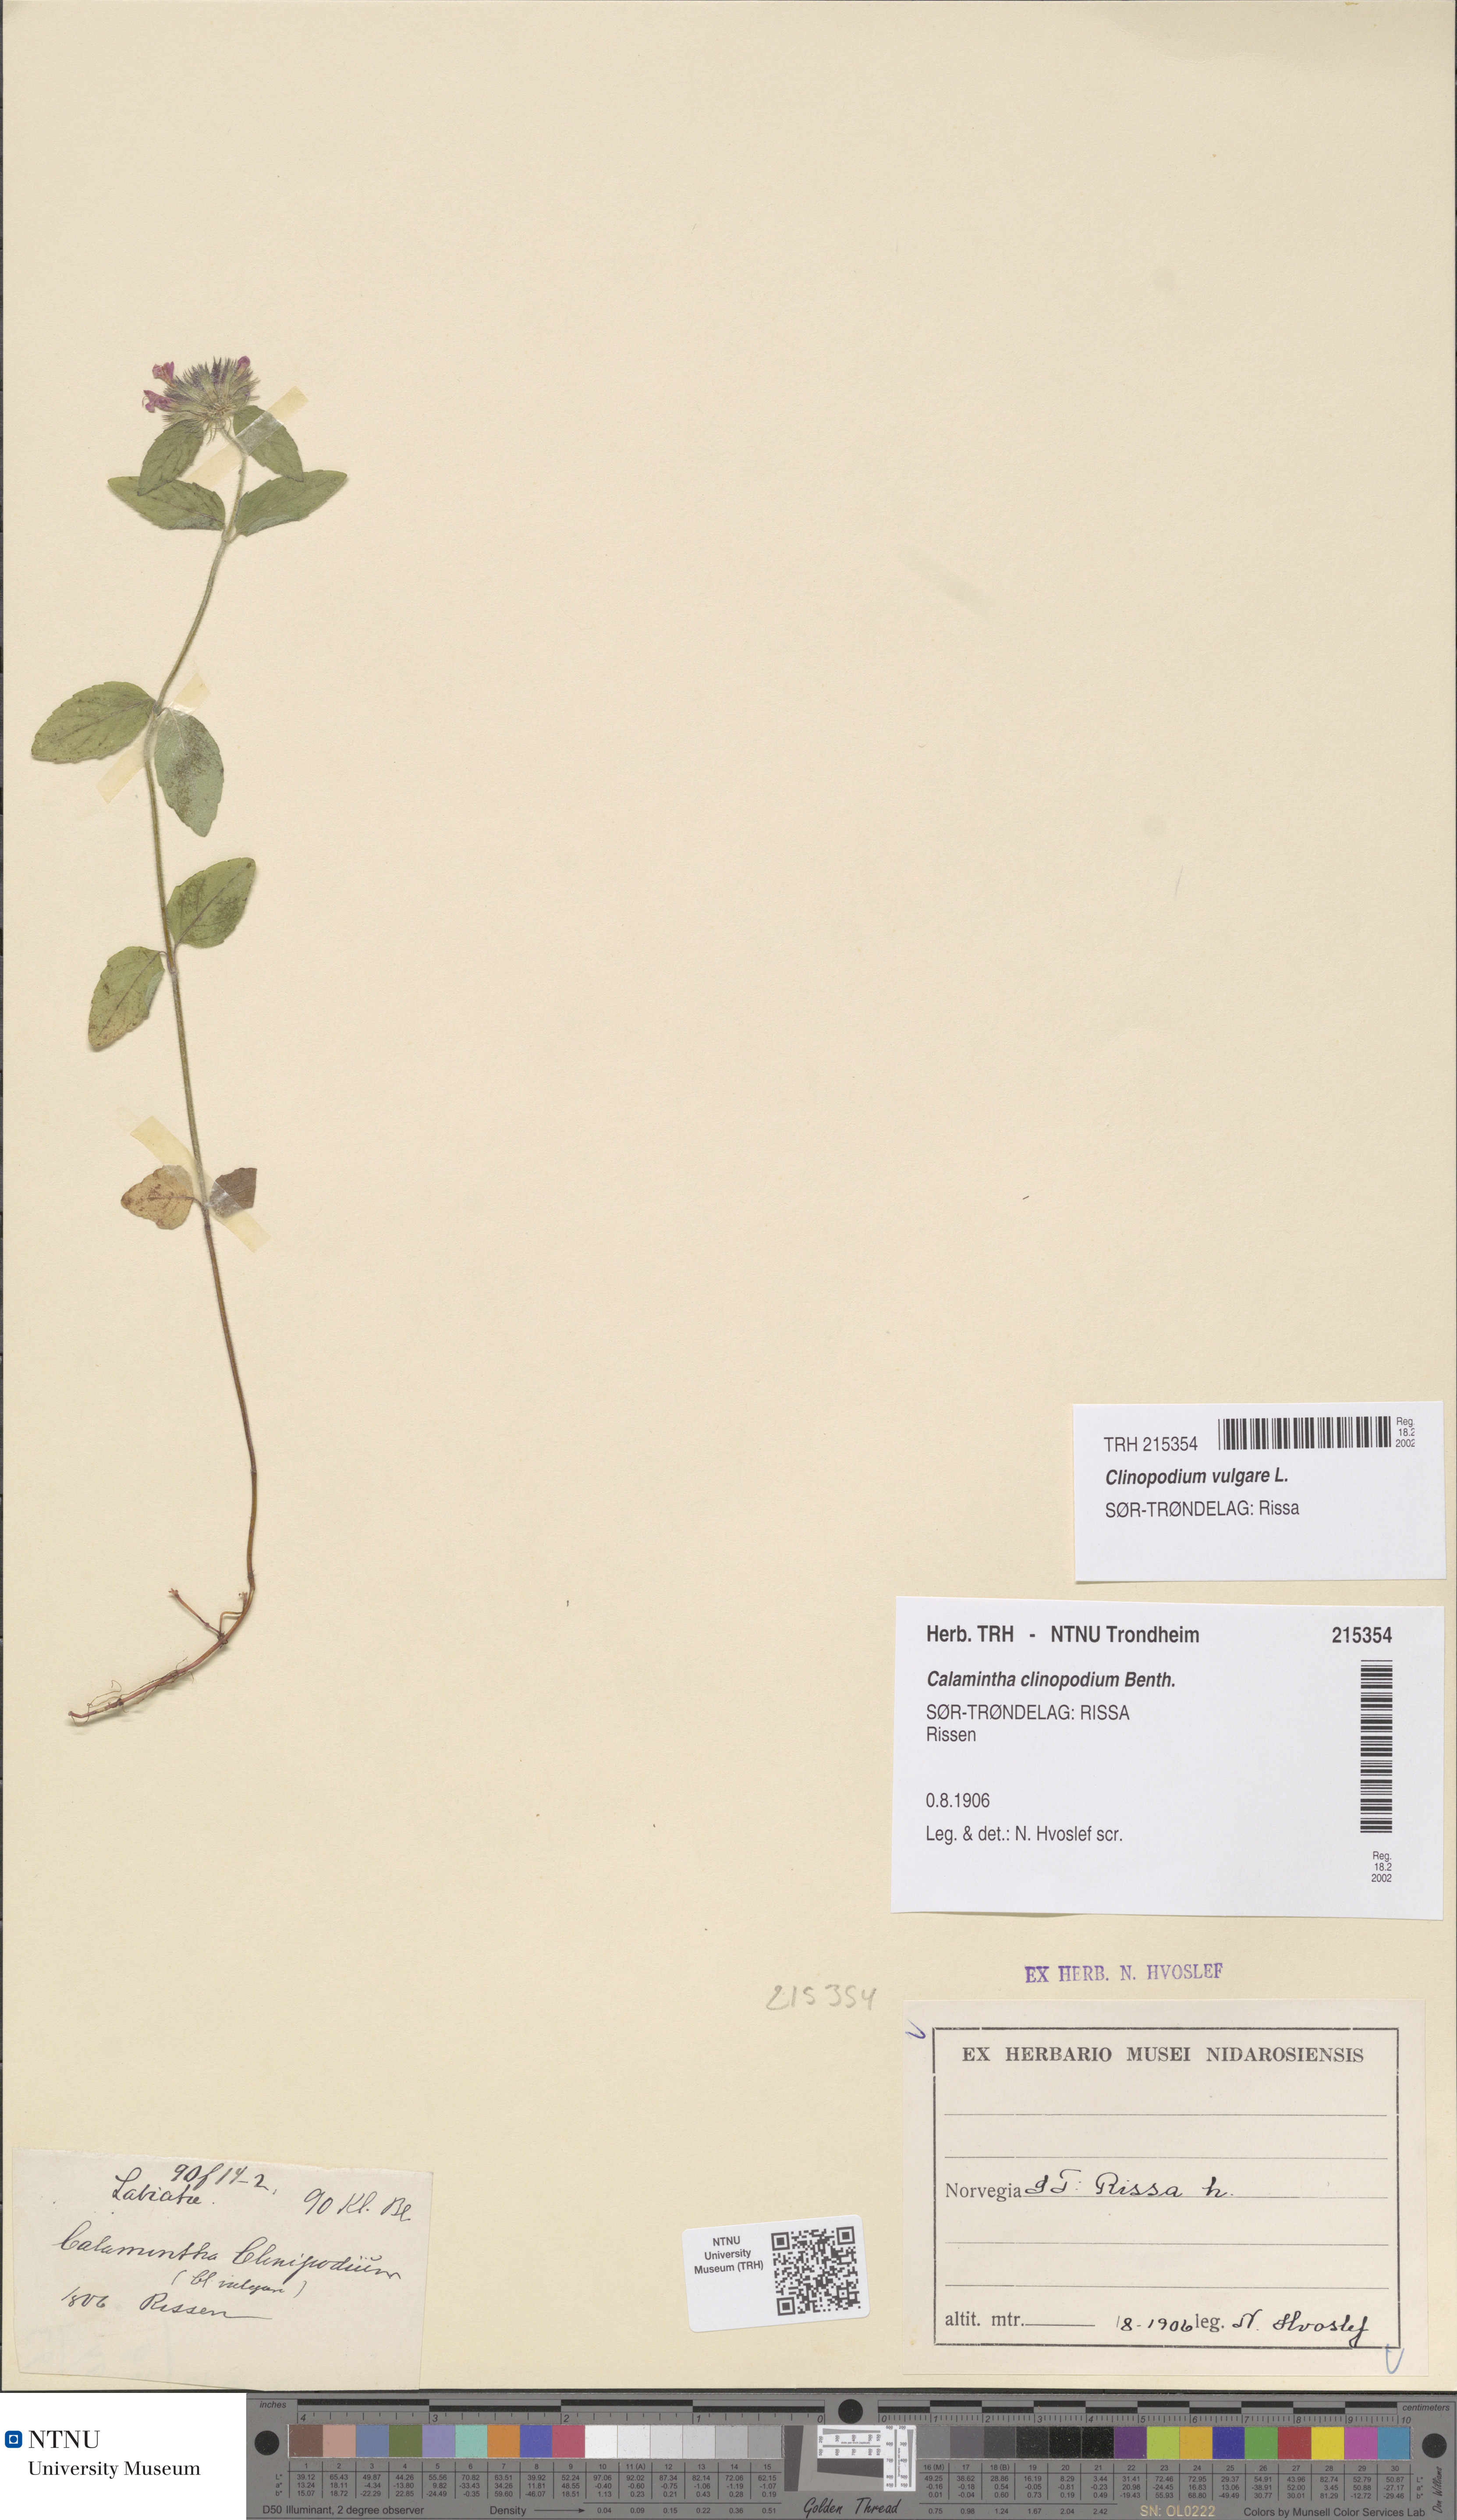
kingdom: Plantae
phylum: Tracheophyta
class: Magnoliopsida
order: Lamiales
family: Lamiaceae
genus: Clinopodium
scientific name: Clinopodium vulgare
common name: Wild basil
